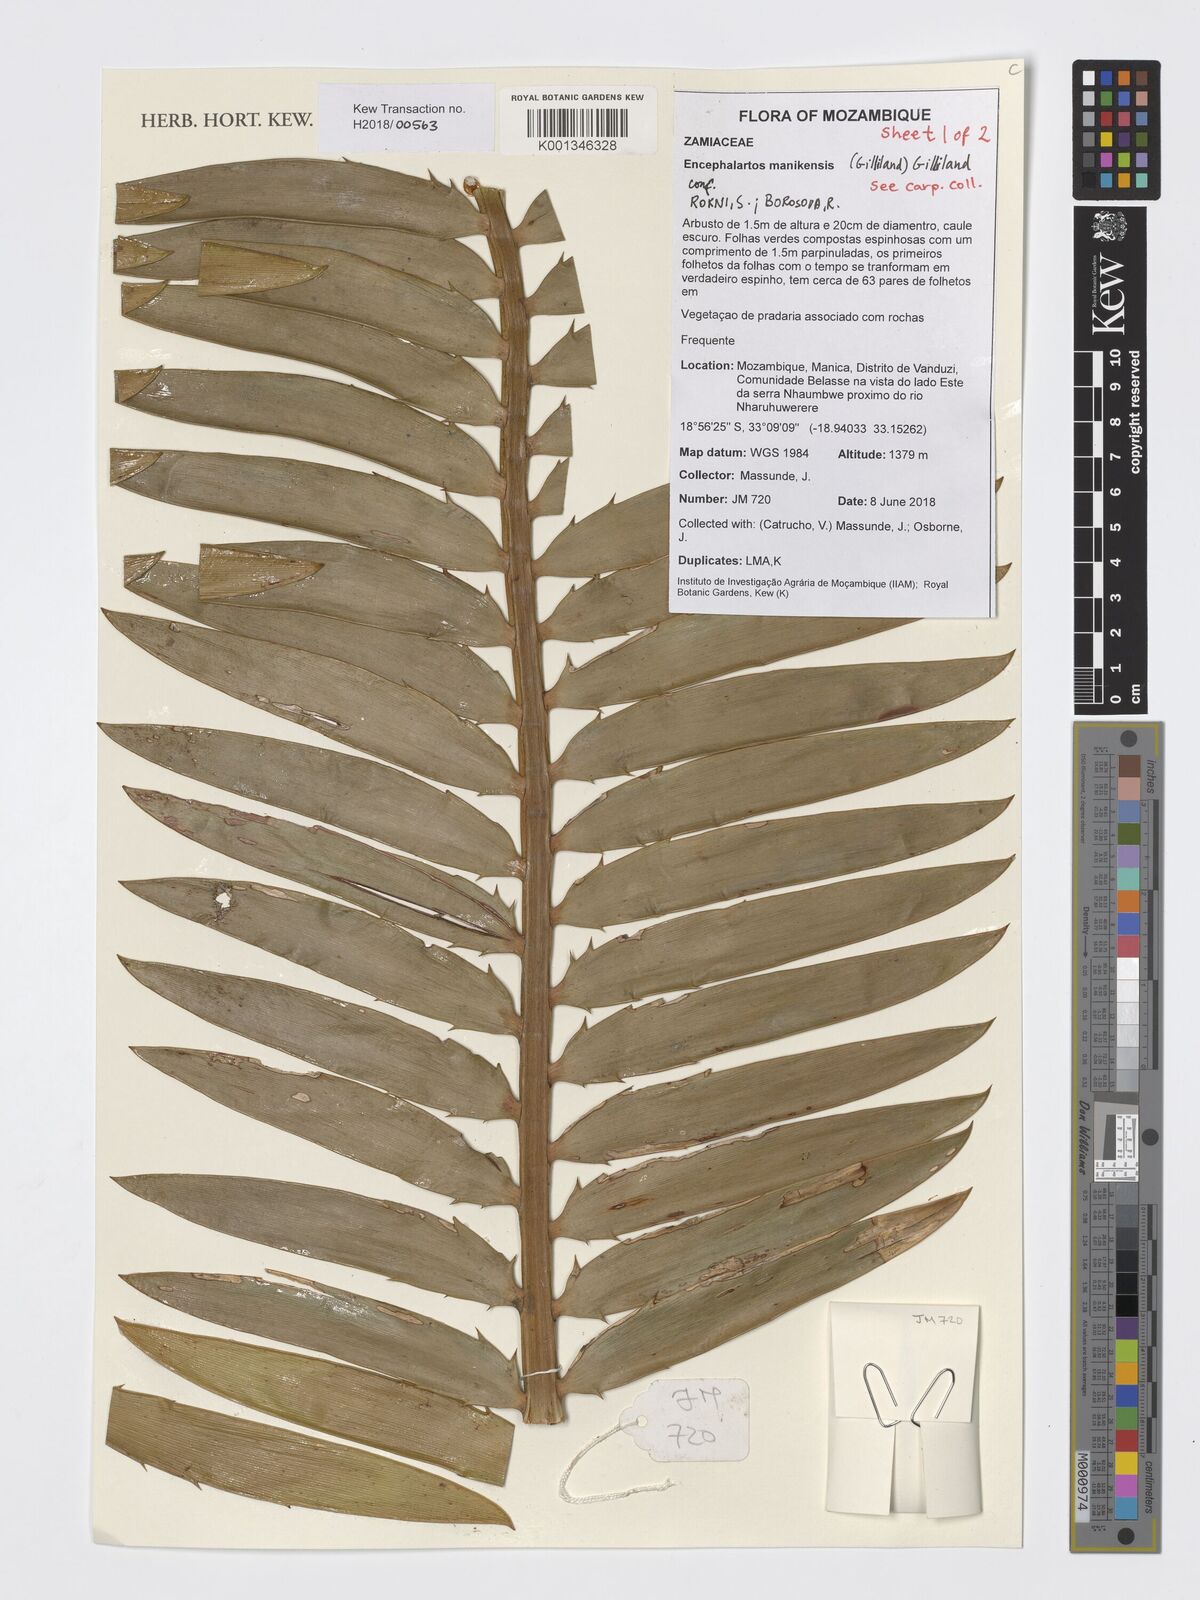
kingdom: Plantae
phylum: Tracheophyta
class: Cycadopsida
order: Cycadales
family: Zamiaceae
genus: Encephalartos
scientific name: Encephalartos manikensis
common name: Gorongo cycad
